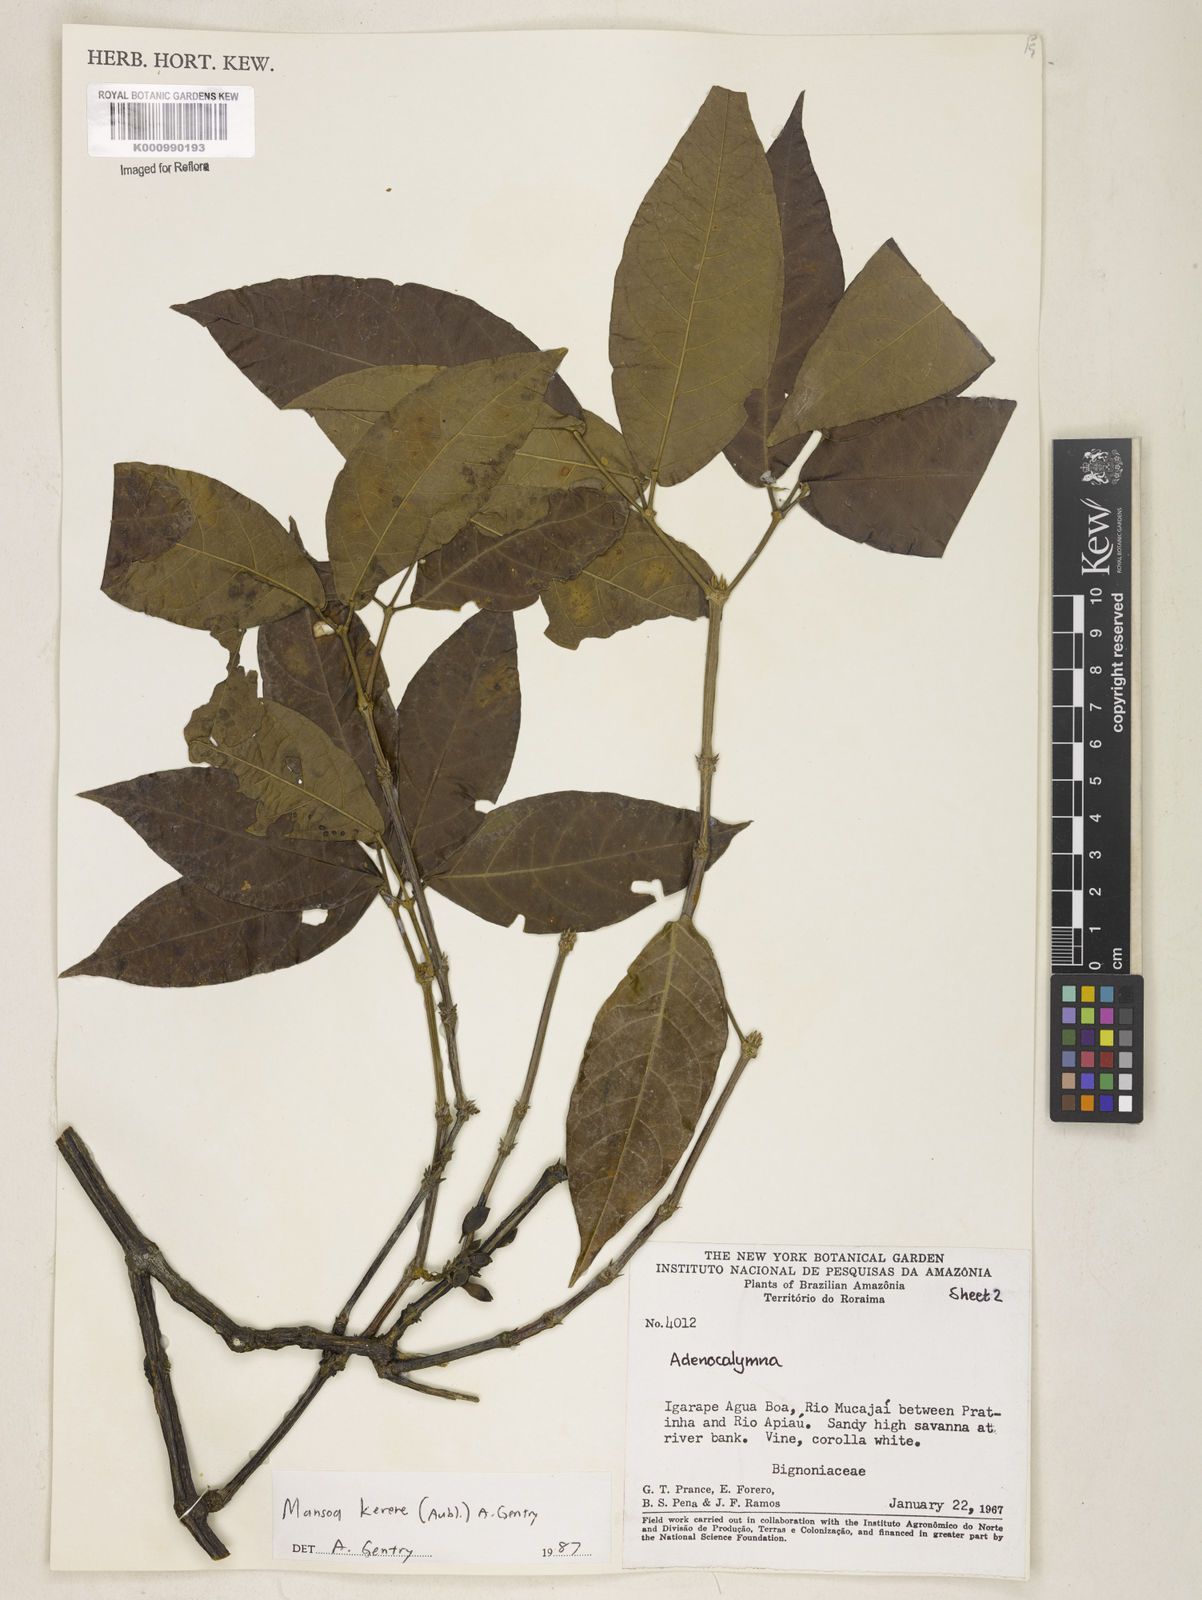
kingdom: Plantae
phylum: Tracheophyta
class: Magnoliopsida
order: Lamiales
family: Bignoniaceae
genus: Pachyptera
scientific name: Pachyptera kerere
